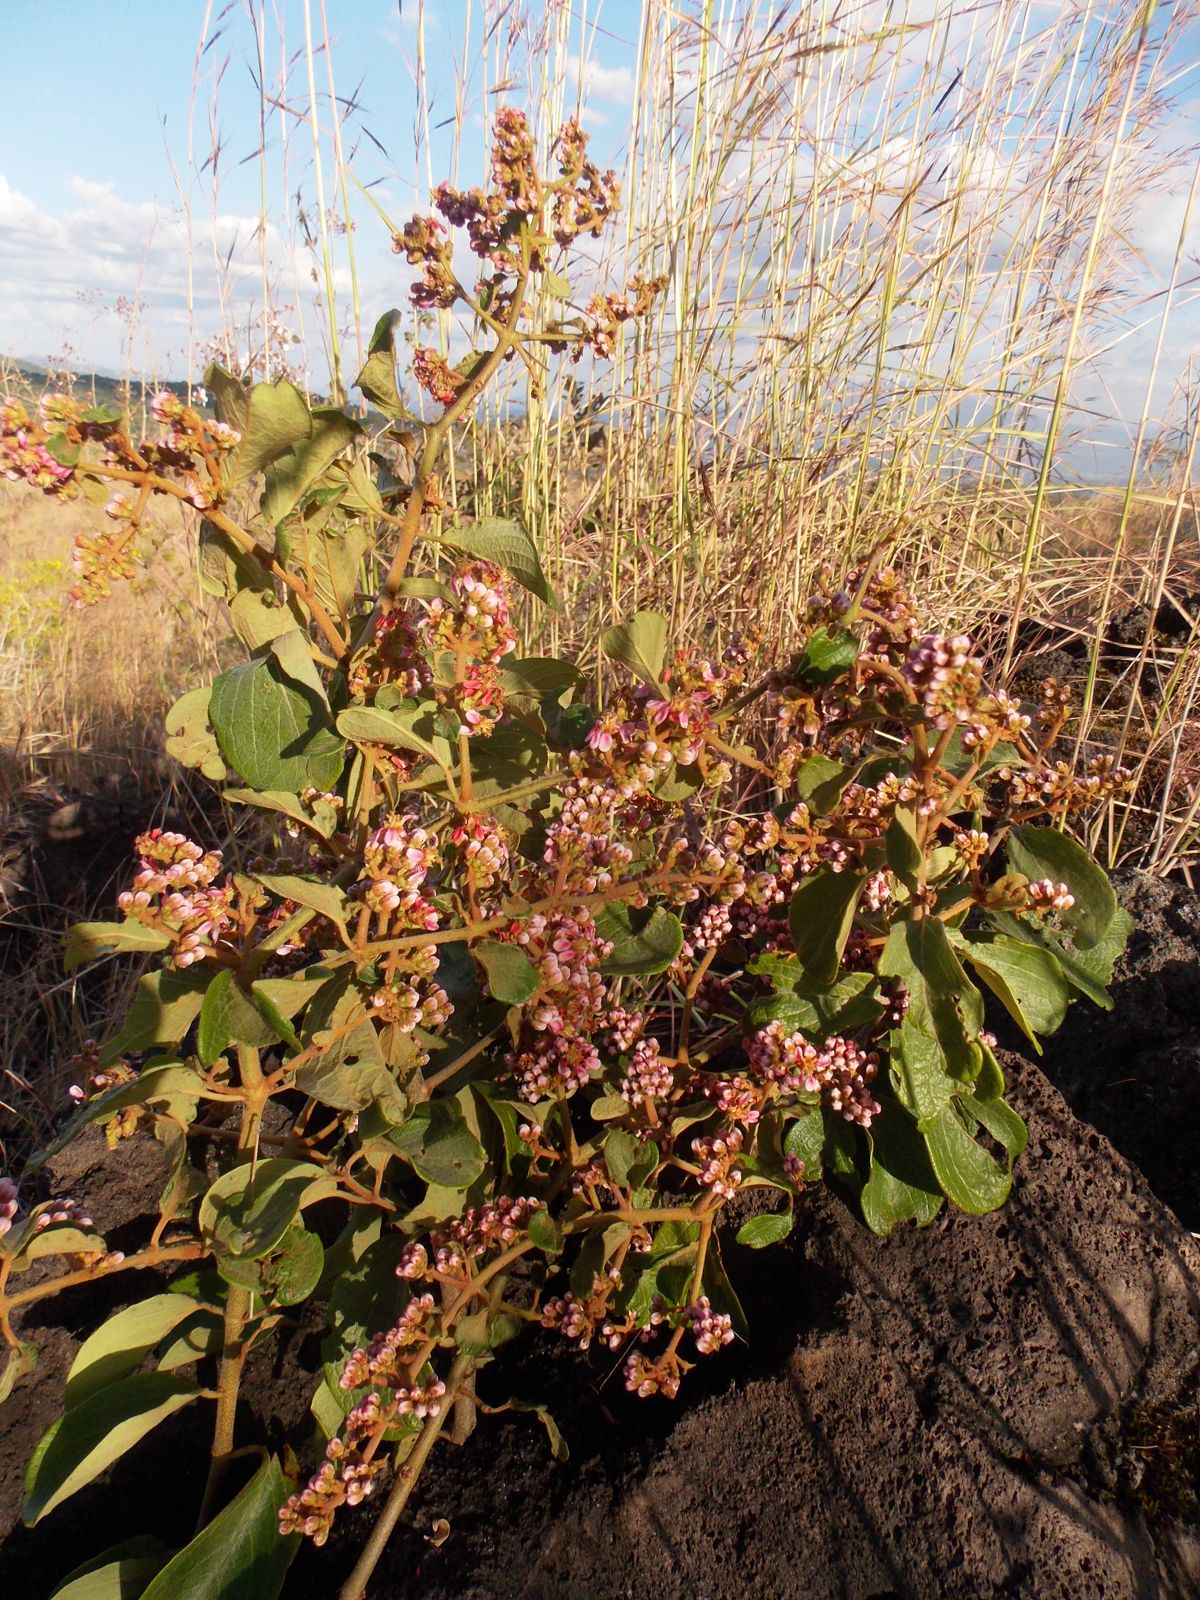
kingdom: Plantae
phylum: Tracheophyta
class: Magnoliopsida
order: Malpighiales
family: Malpighiaceae
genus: Heteropterys
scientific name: Heteropterys brachiata
